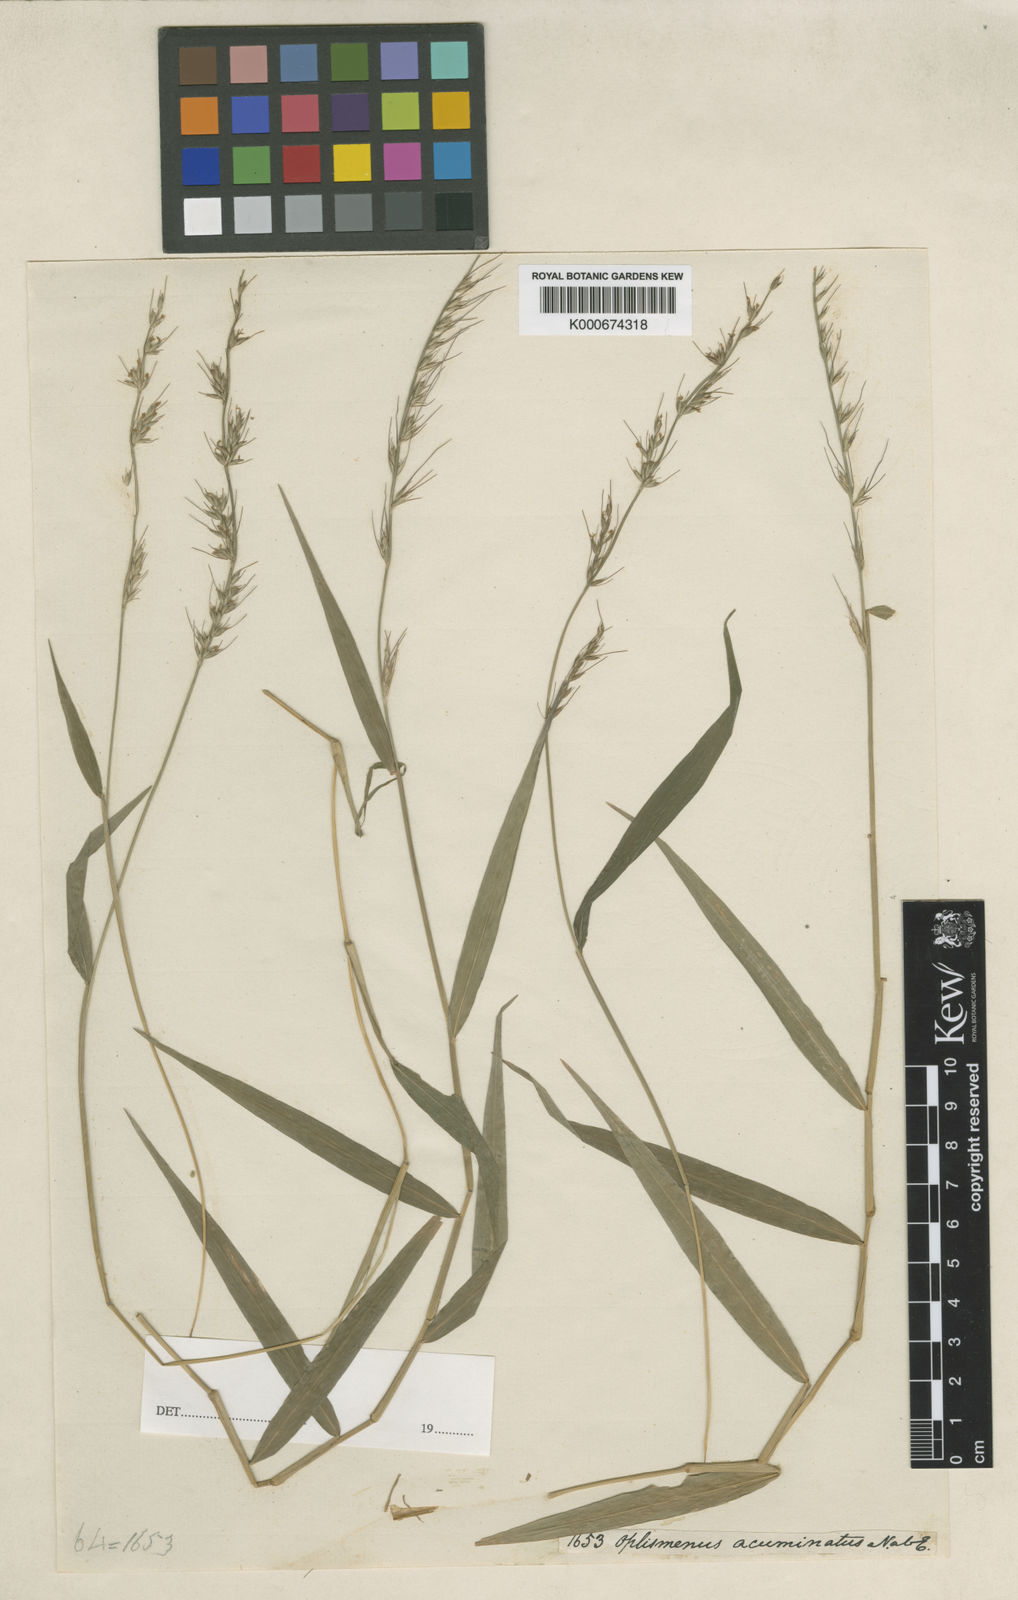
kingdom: Plantae
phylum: Tracheophyta
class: Liliopsida
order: Poales
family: Poaceae
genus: Oplismenus
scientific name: Oplismenus
